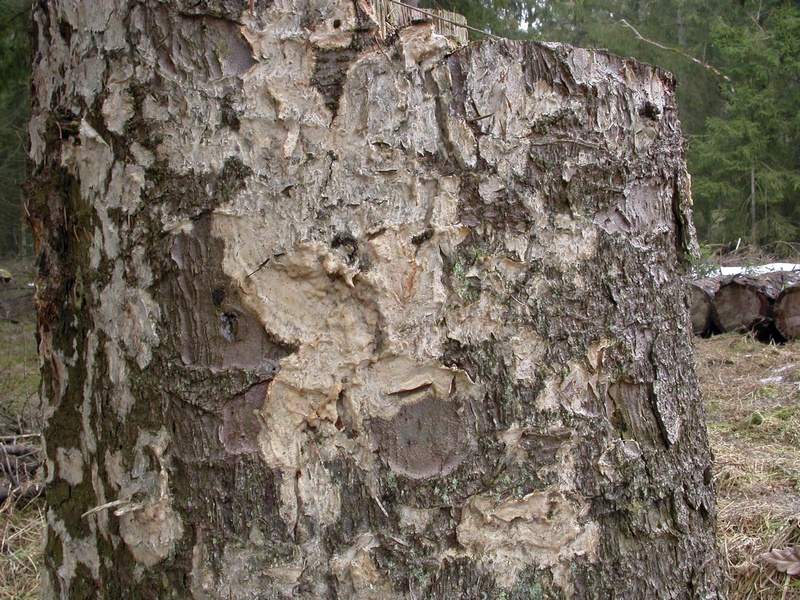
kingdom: Fungi
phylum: Basidiomycota
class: Agaricomycetes
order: Polyporales
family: Phanerochaetaceae
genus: Phlebiopsis
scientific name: Phlebiopsis gigantea
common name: kæmpebarksvamp
